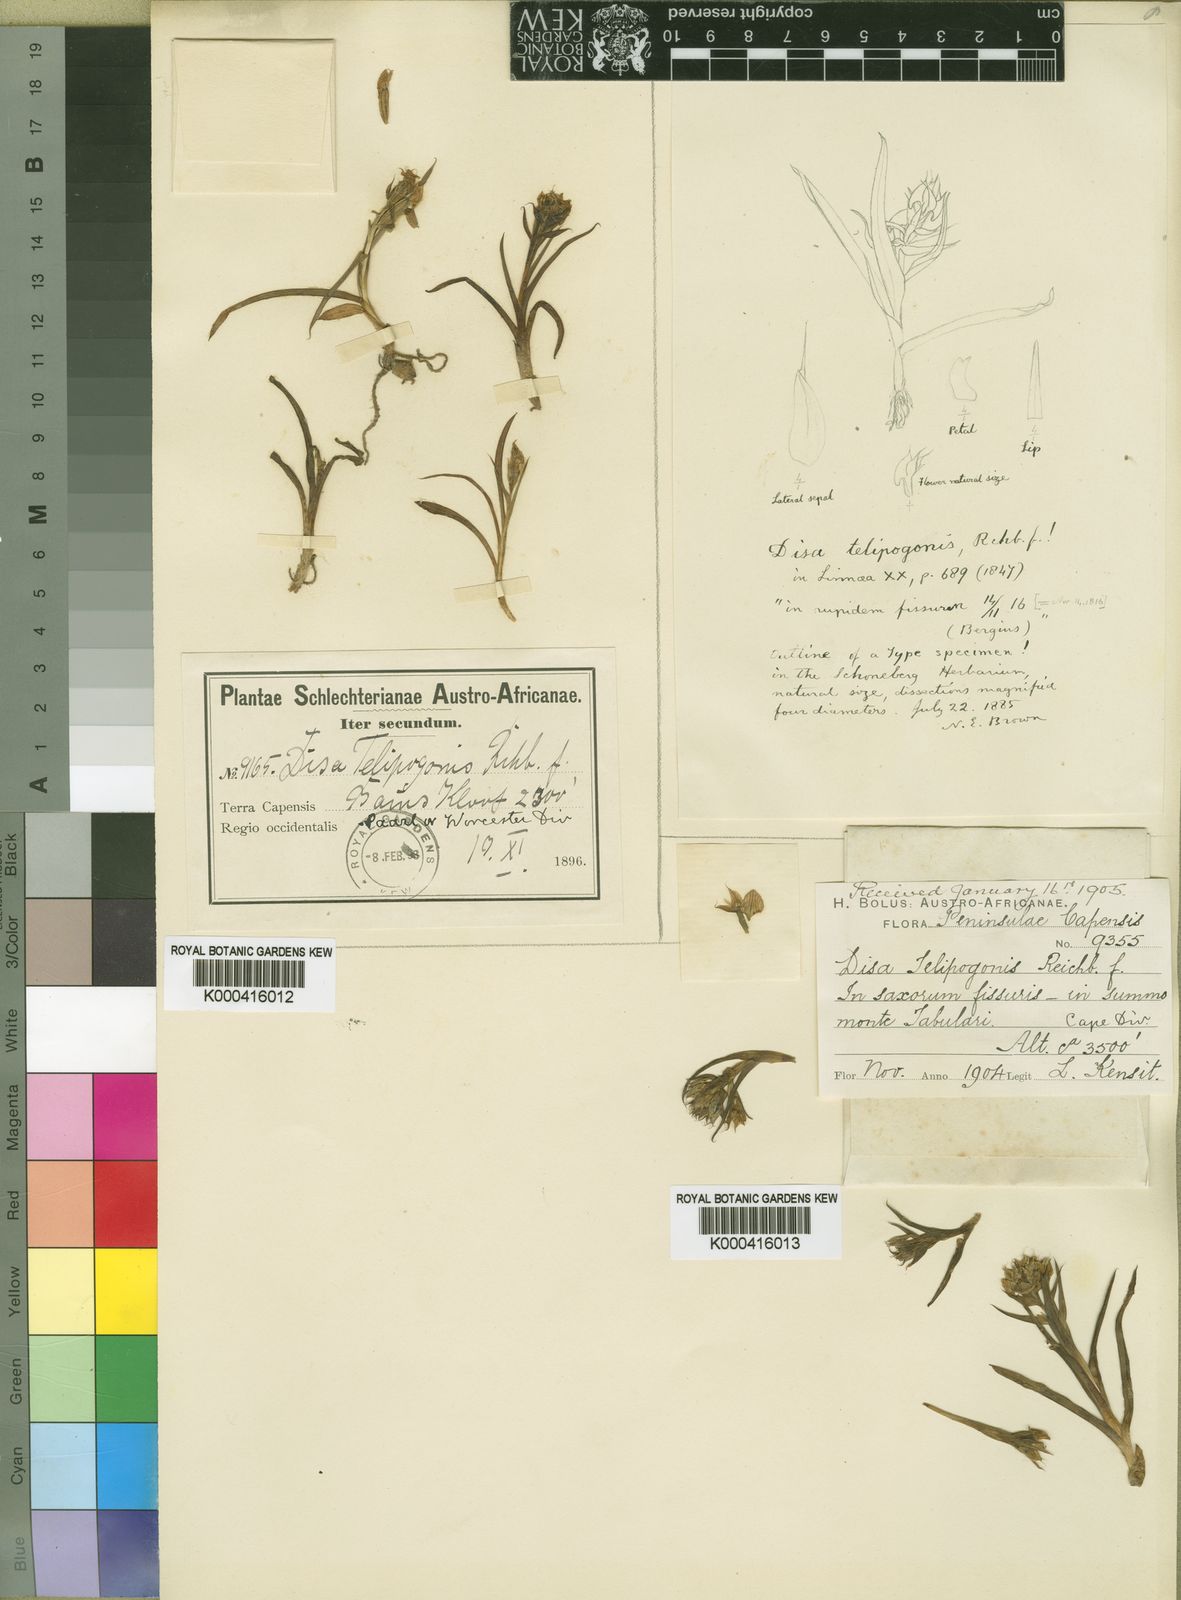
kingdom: Plantae
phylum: Tracheophyta
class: Liliopsida
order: Asparagales
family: Orchidaceae
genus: Disa
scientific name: Disa telipogonis
